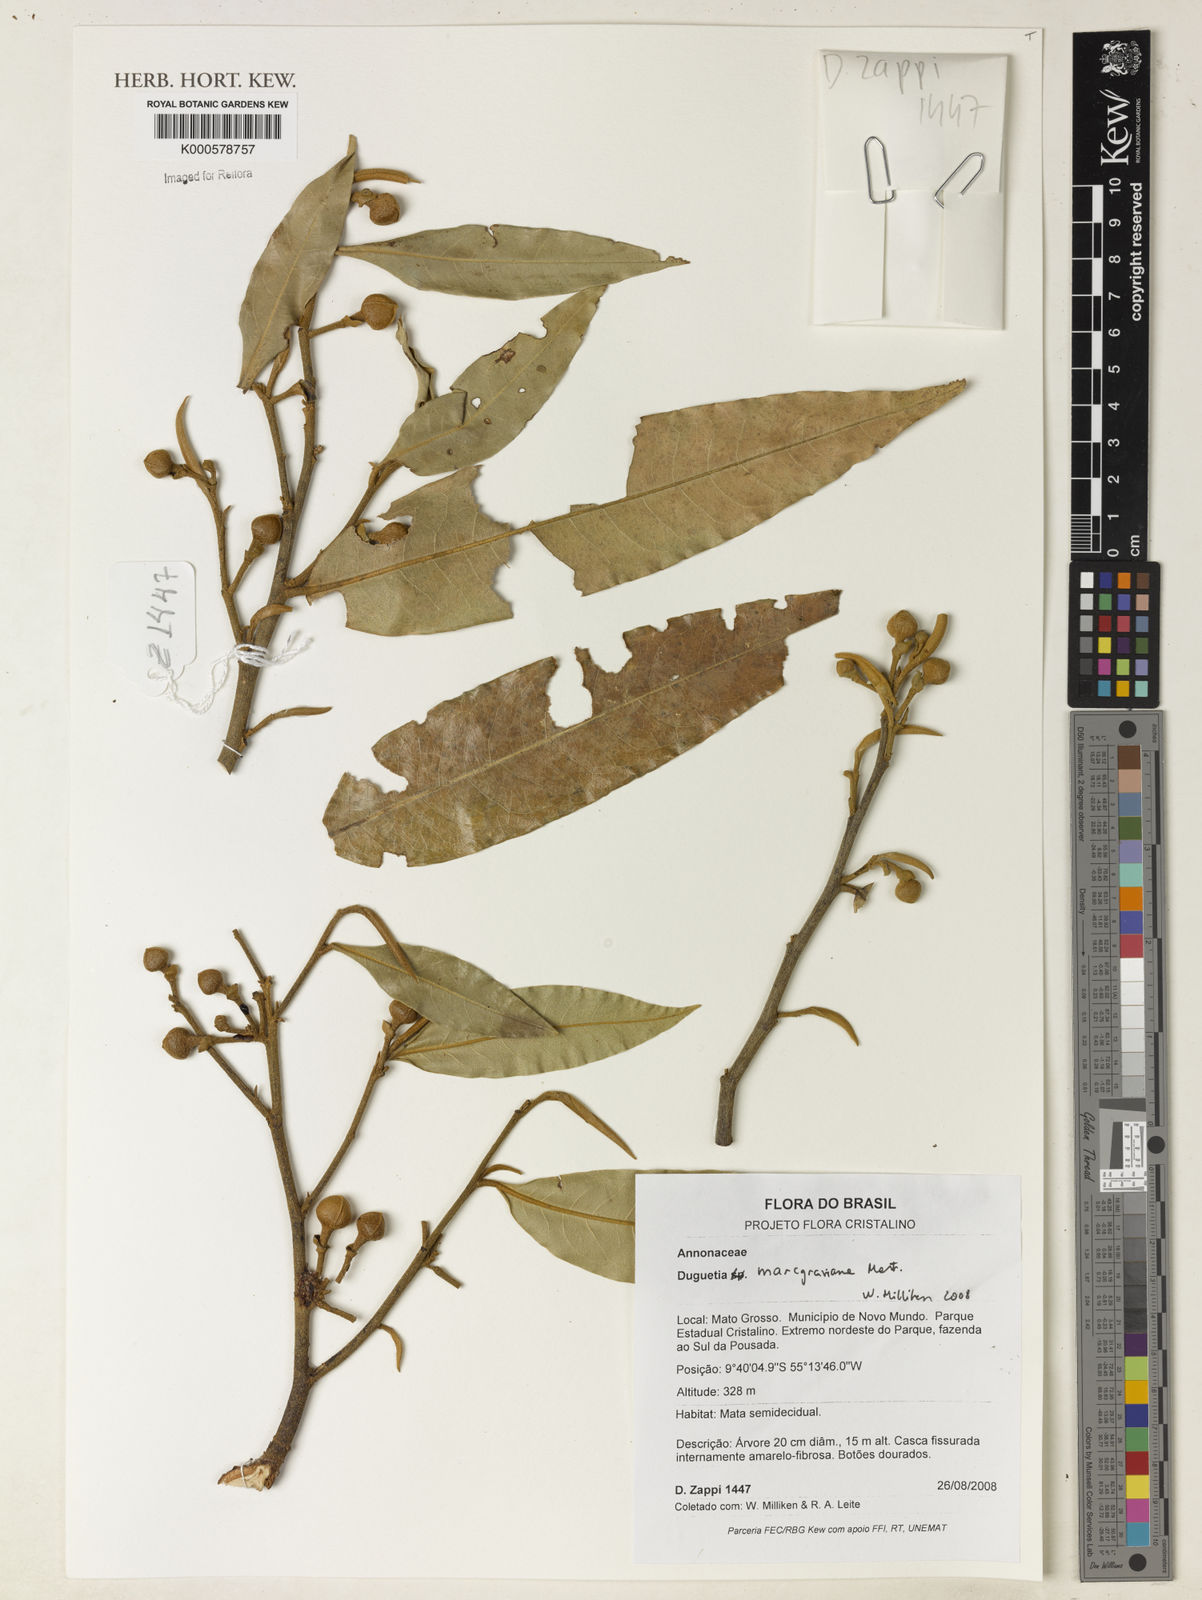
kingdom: Plantae
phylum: Tracheophyta
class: Magnoliopsida
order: Magnoliales
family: Annonaceae
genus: Duguetia
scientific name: Duguetia marcgraviana
